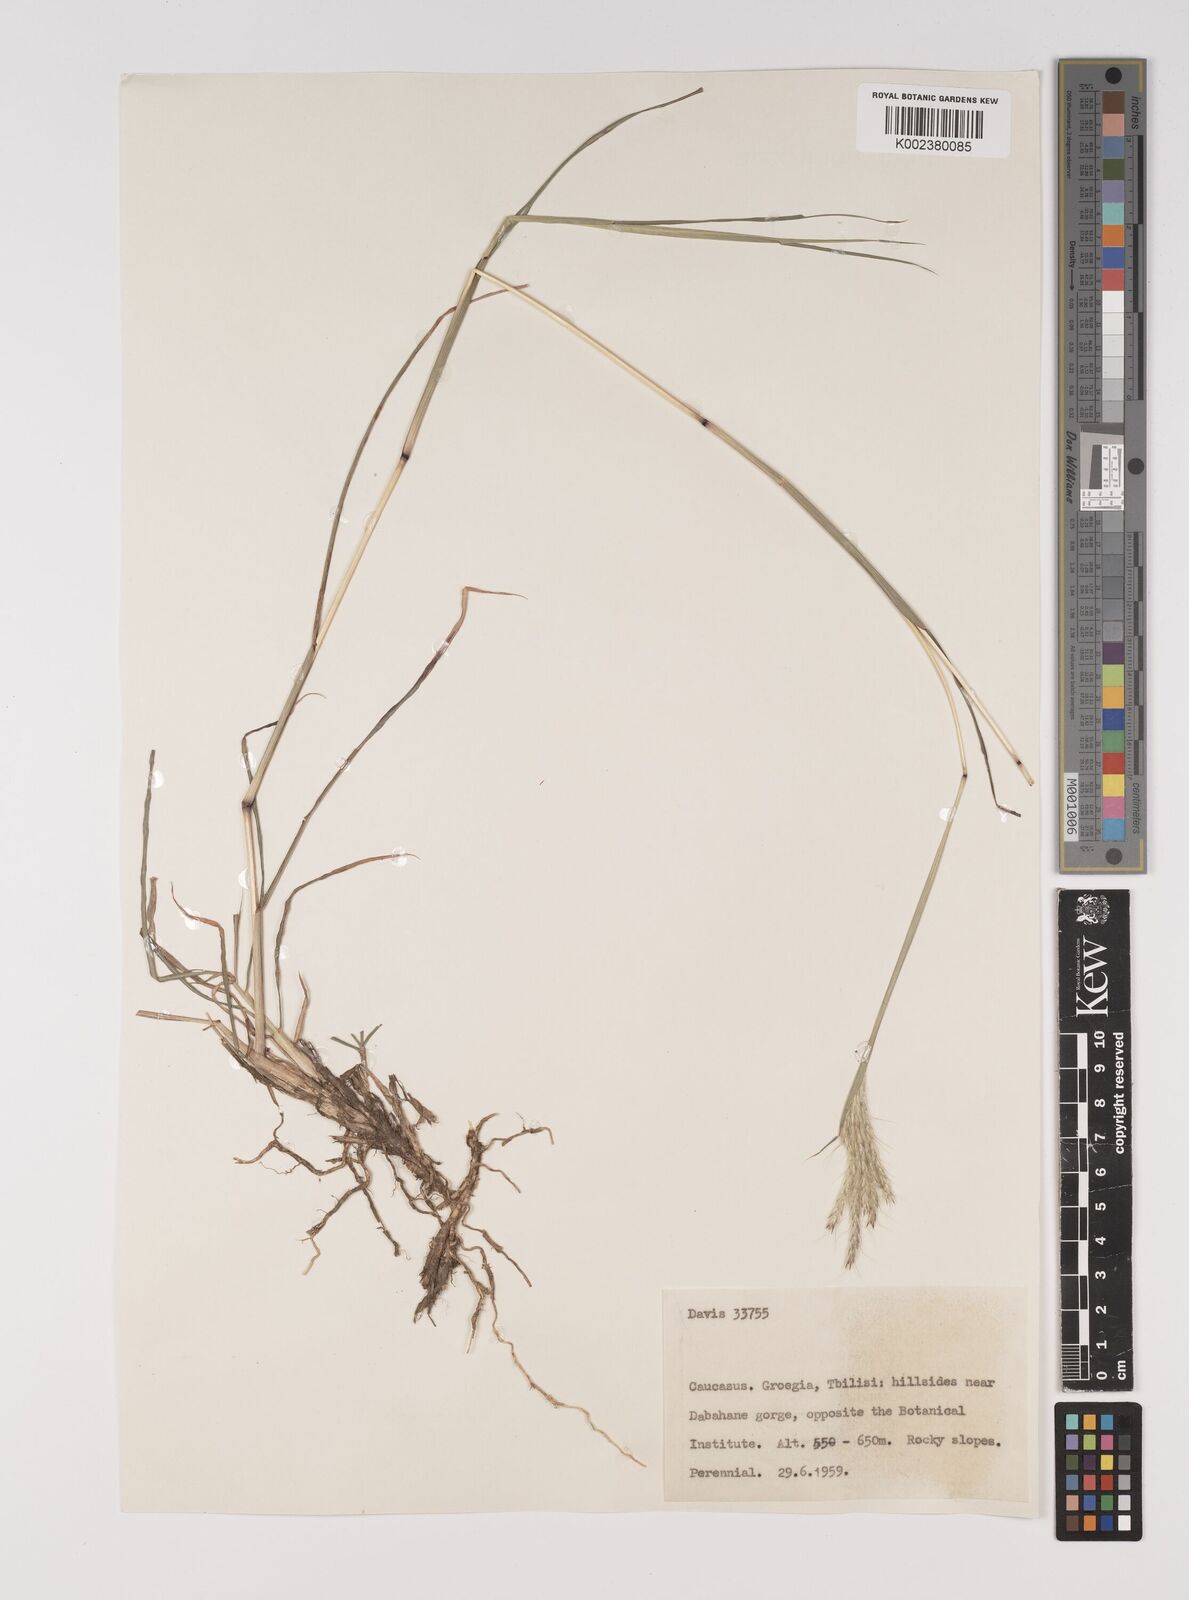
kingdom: Plantae
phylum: Tracheophyta
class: Liliopsida
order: Poales
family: Poaceae
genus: Bothriochloa
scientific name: Bothriochloa ischaemum
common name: Yellow bluestem
